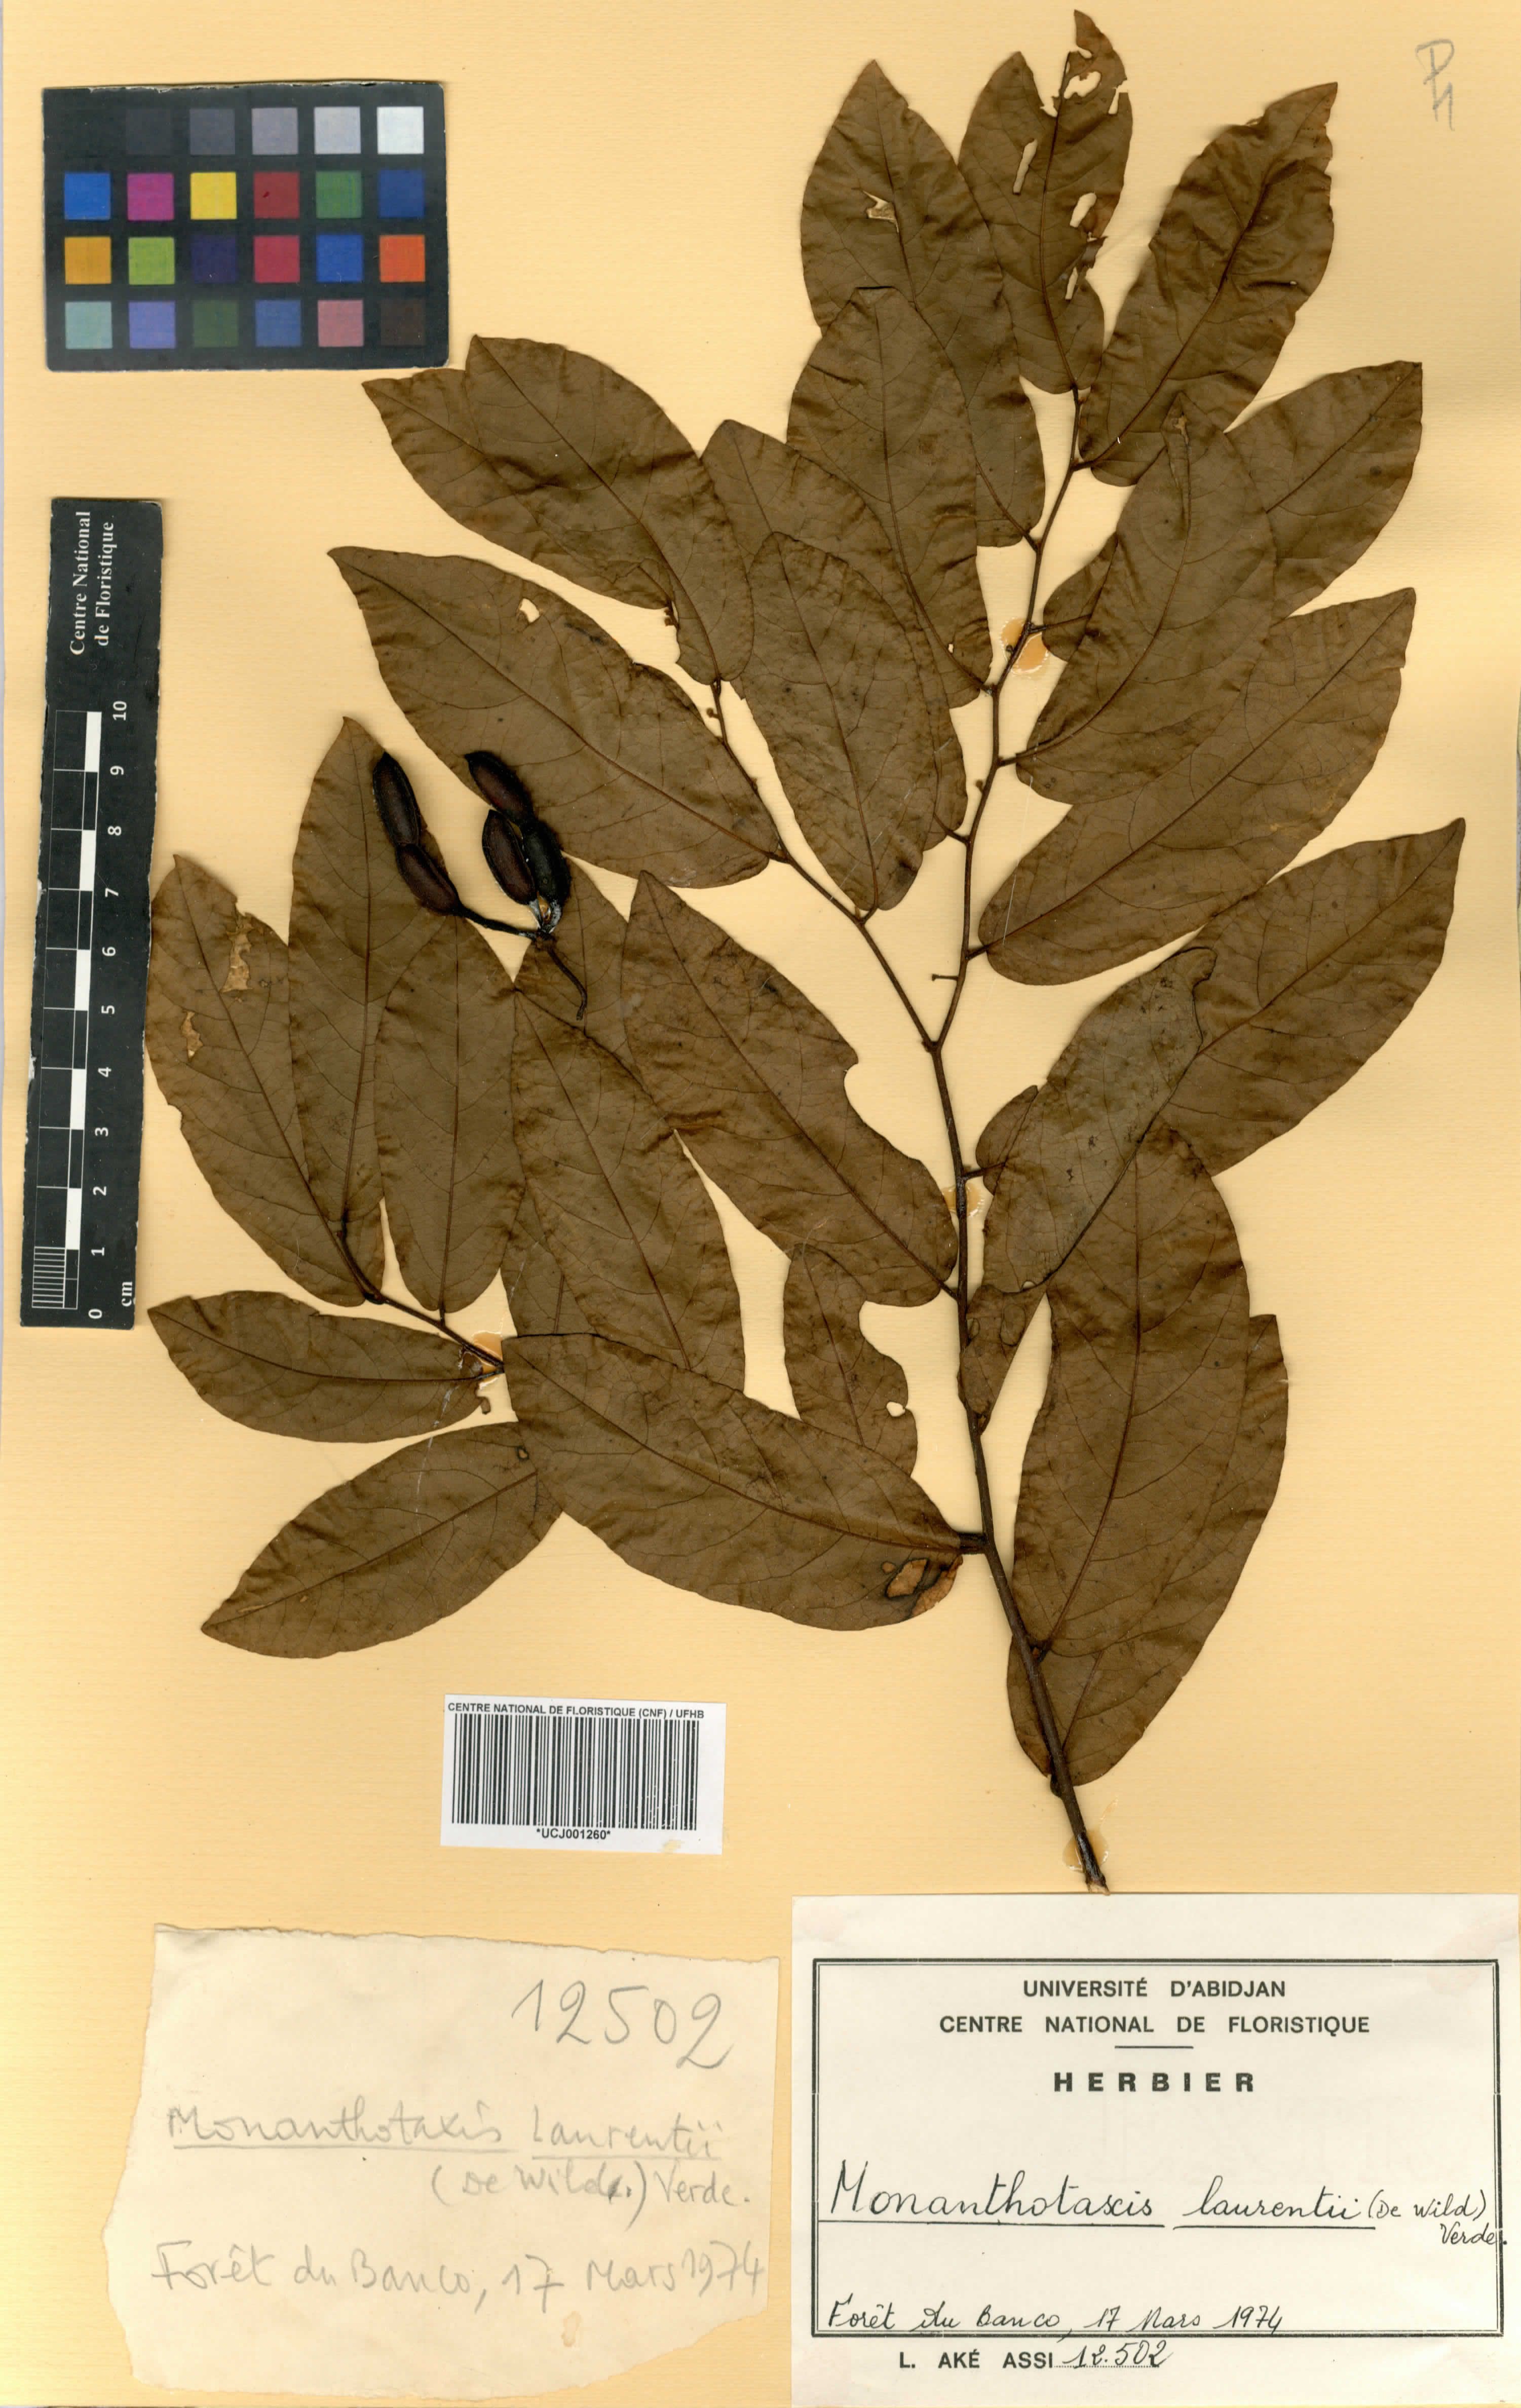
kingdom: Plantae
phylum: Tracheophyta
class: Magnoliopsida
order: Magnoliales
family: Annonaceae
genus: Monanthotaxis
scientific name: Monanthotaxis laurentii
